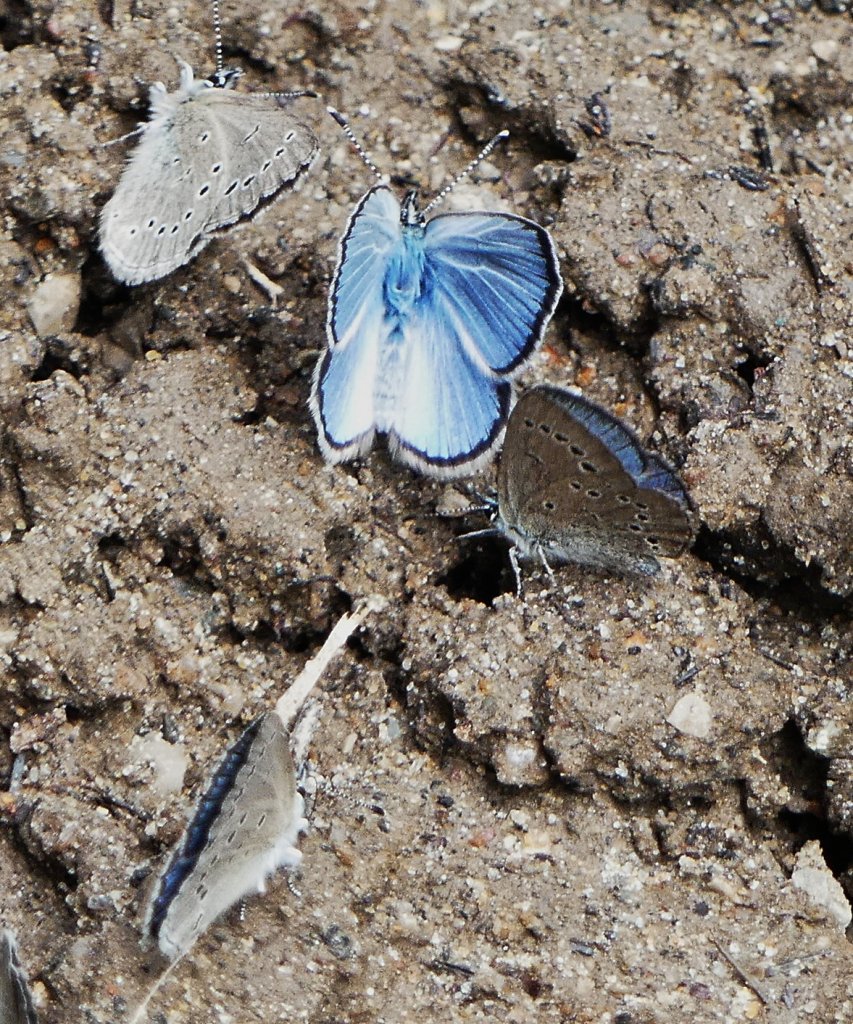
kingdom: Animalia
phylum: Arthropoda
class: Insecta
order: Lepidoptera
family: Lycaenidae
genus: Glaucopsyche
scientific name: Glaucopsyche lygdamus
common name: Silvery Blue
